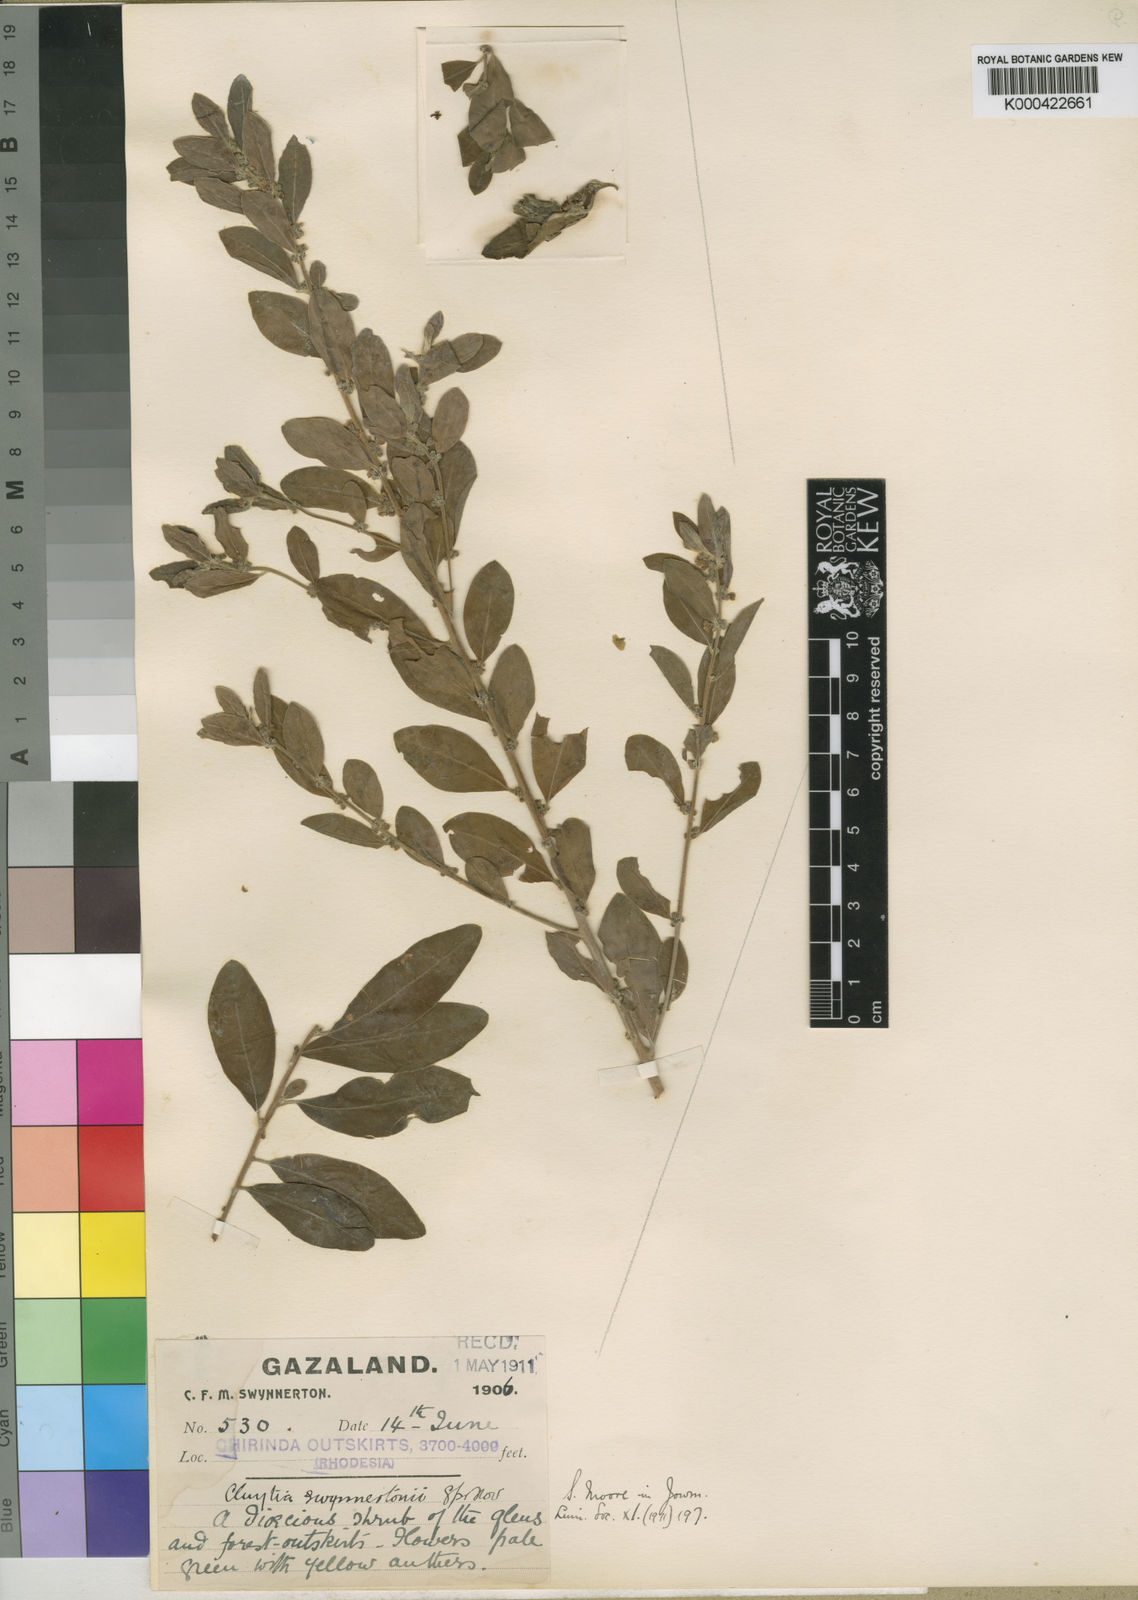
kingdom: Plantae
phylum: Tracheophyta
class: Magnoliopsida
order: Malpighiales
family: Peraceae
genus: Clutia
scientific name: Clutia swynnertonii
